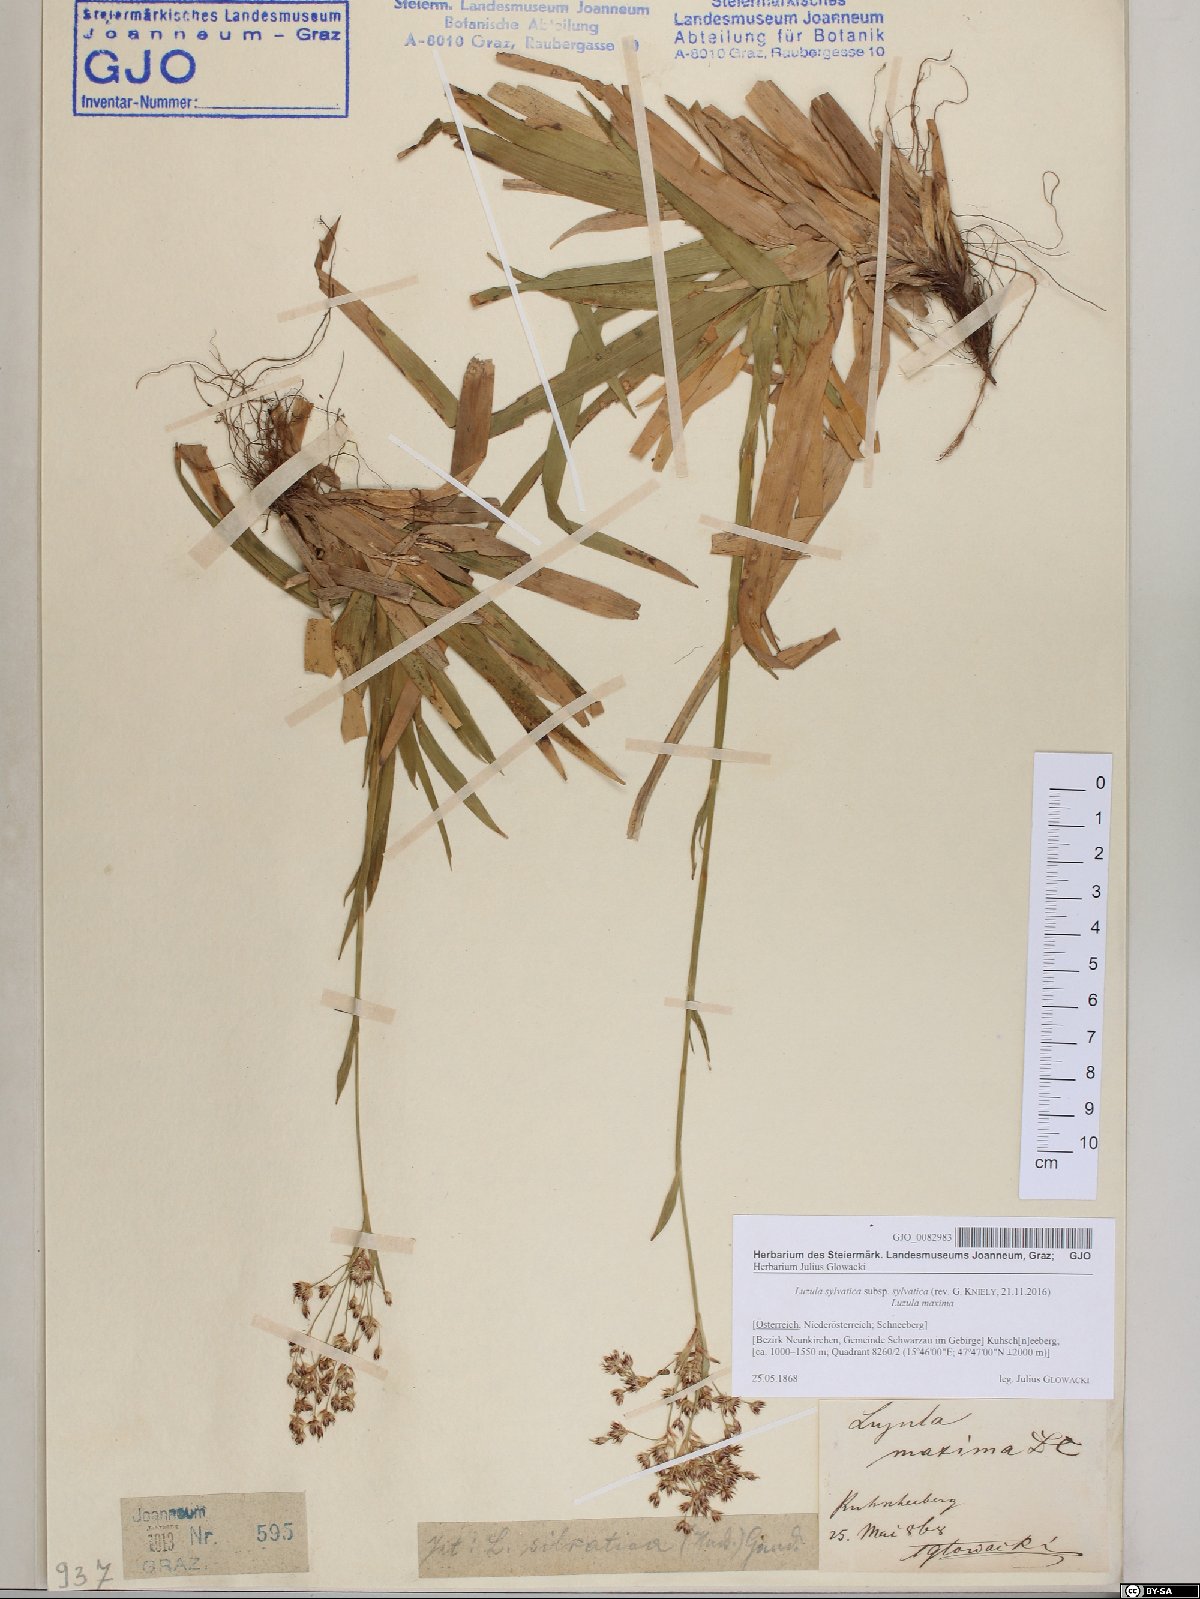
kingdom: Plantae
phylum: Tracheophyta
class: Liliopsida
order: Poales
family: Juncaceae
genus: Luzula
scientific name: Luzula sylvatica
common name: Great wood-rush
